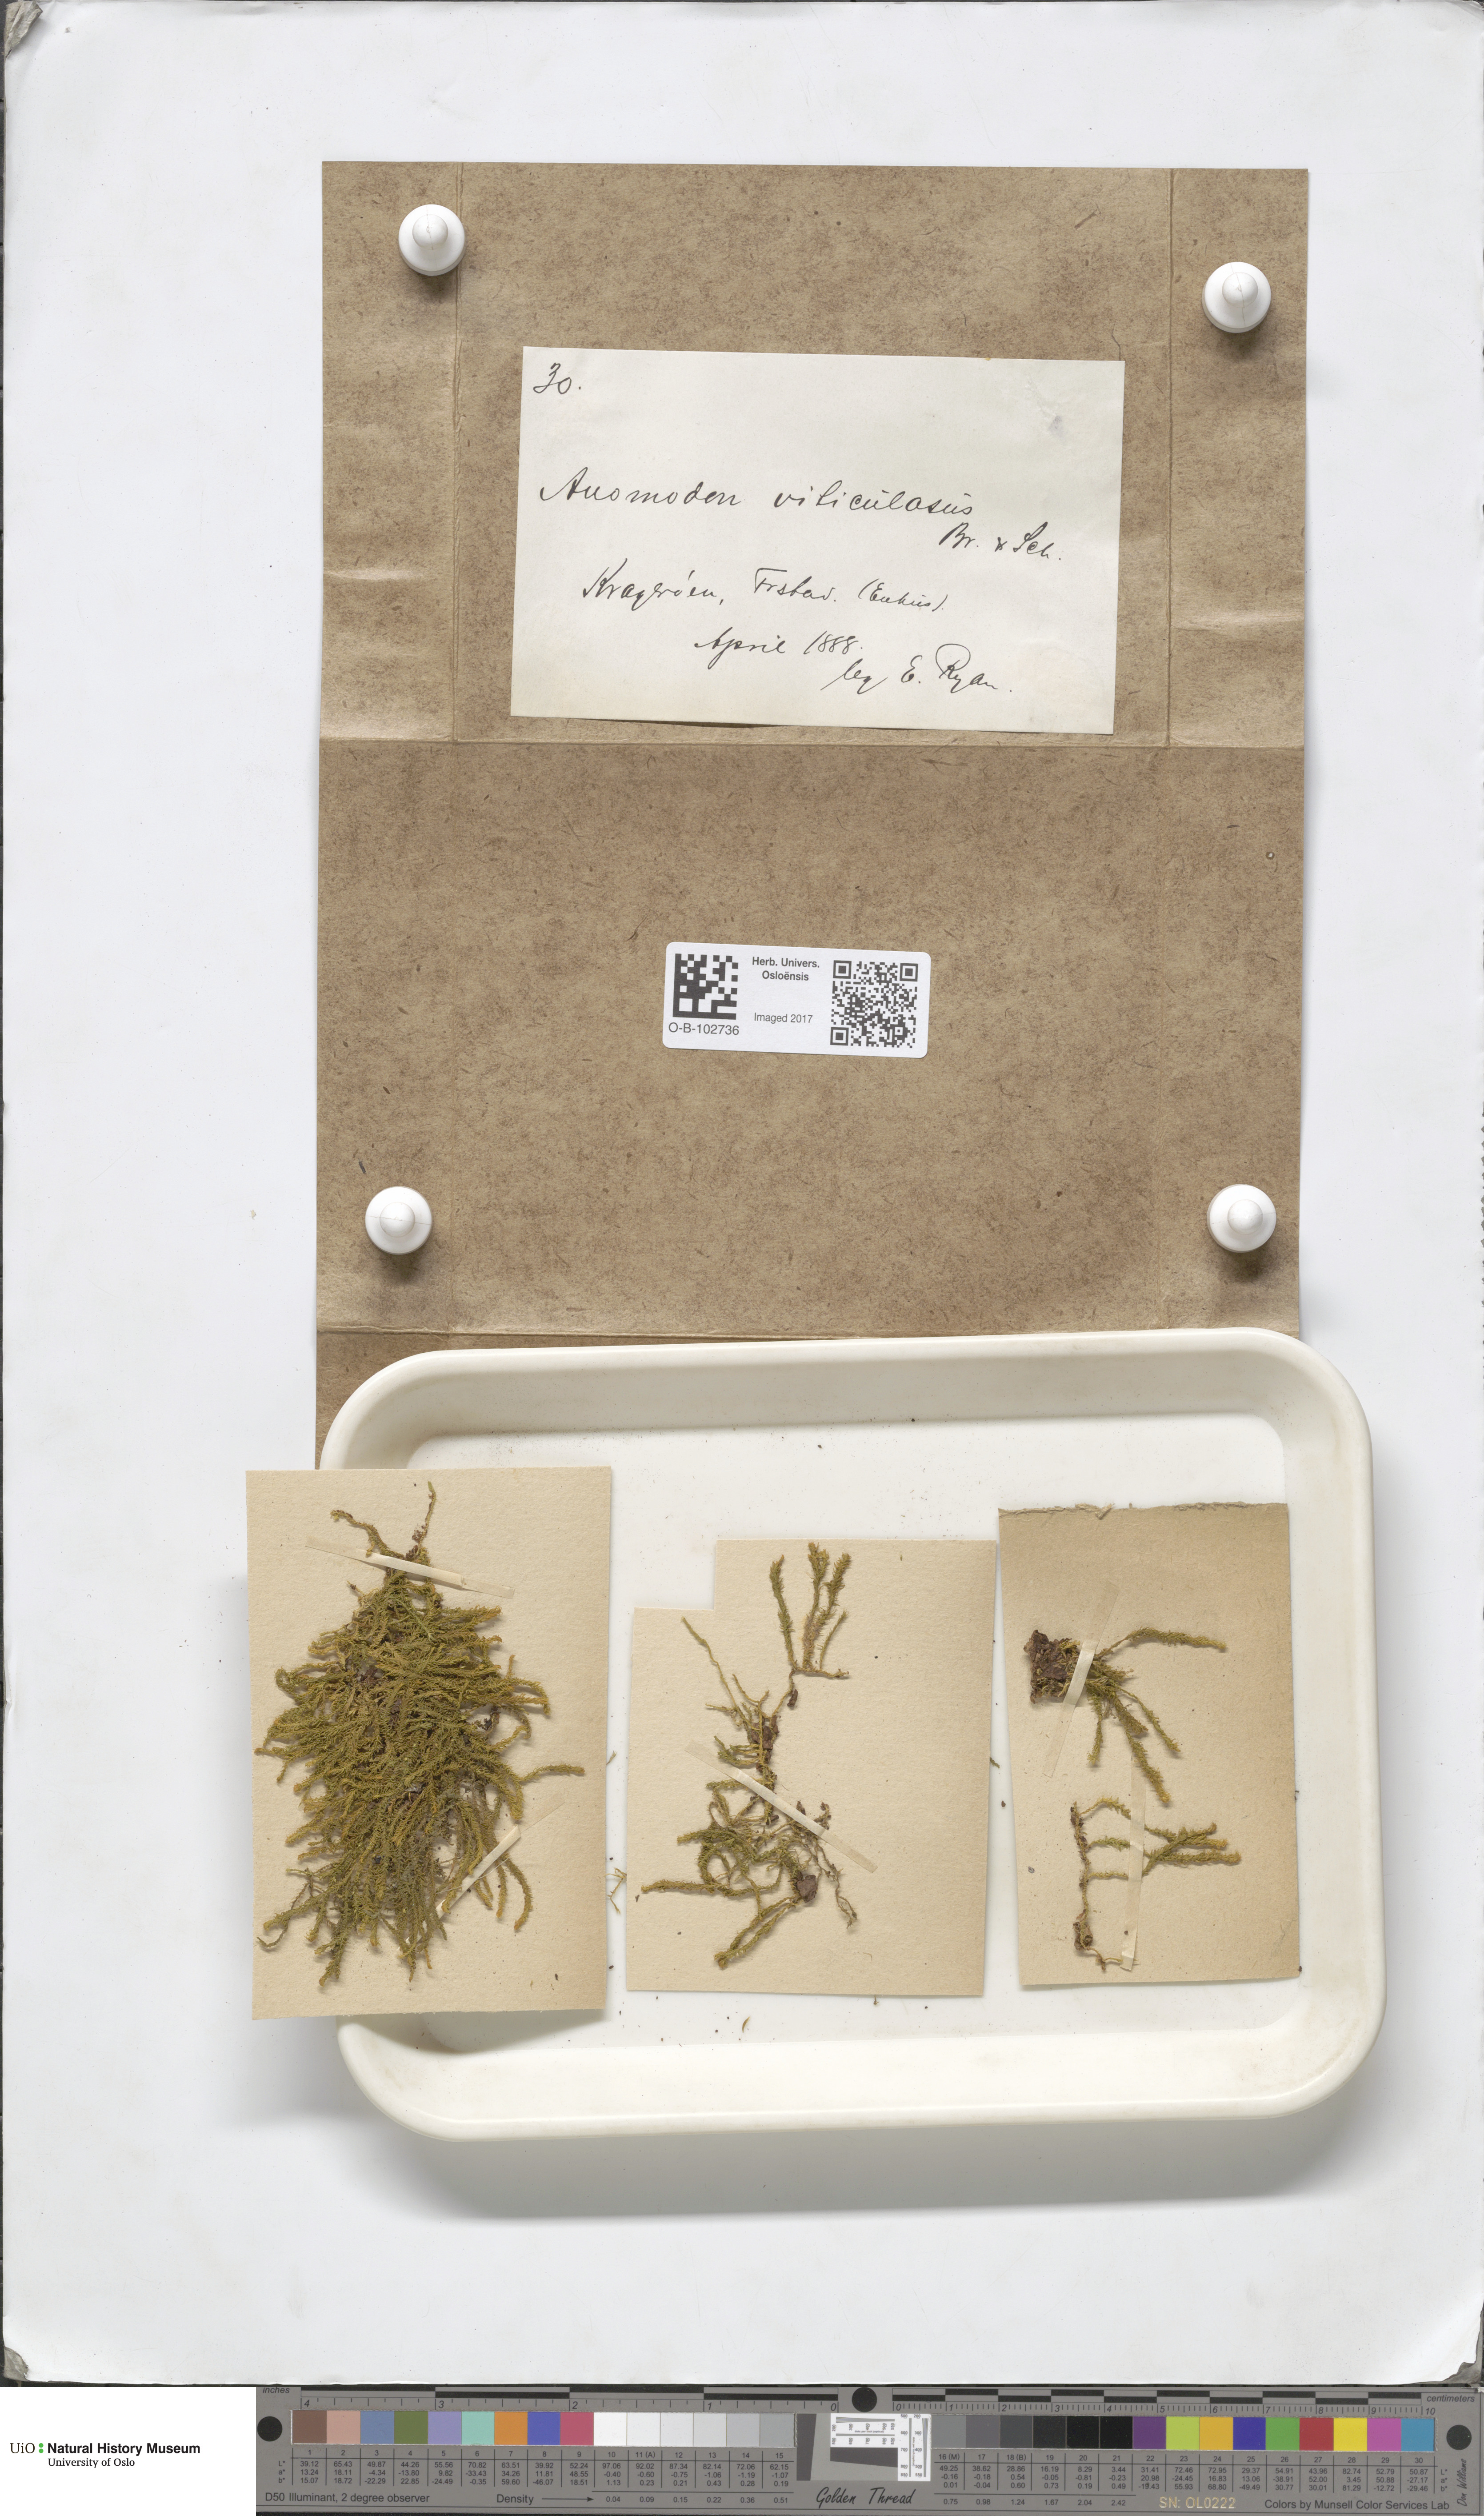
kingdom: Plantae
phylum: Bryophyta
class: Bryopsida
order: Hypnales
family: Anomodontaceae
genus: Anomodon
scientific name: Anomodon viticulosus
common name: Tall anomodon
